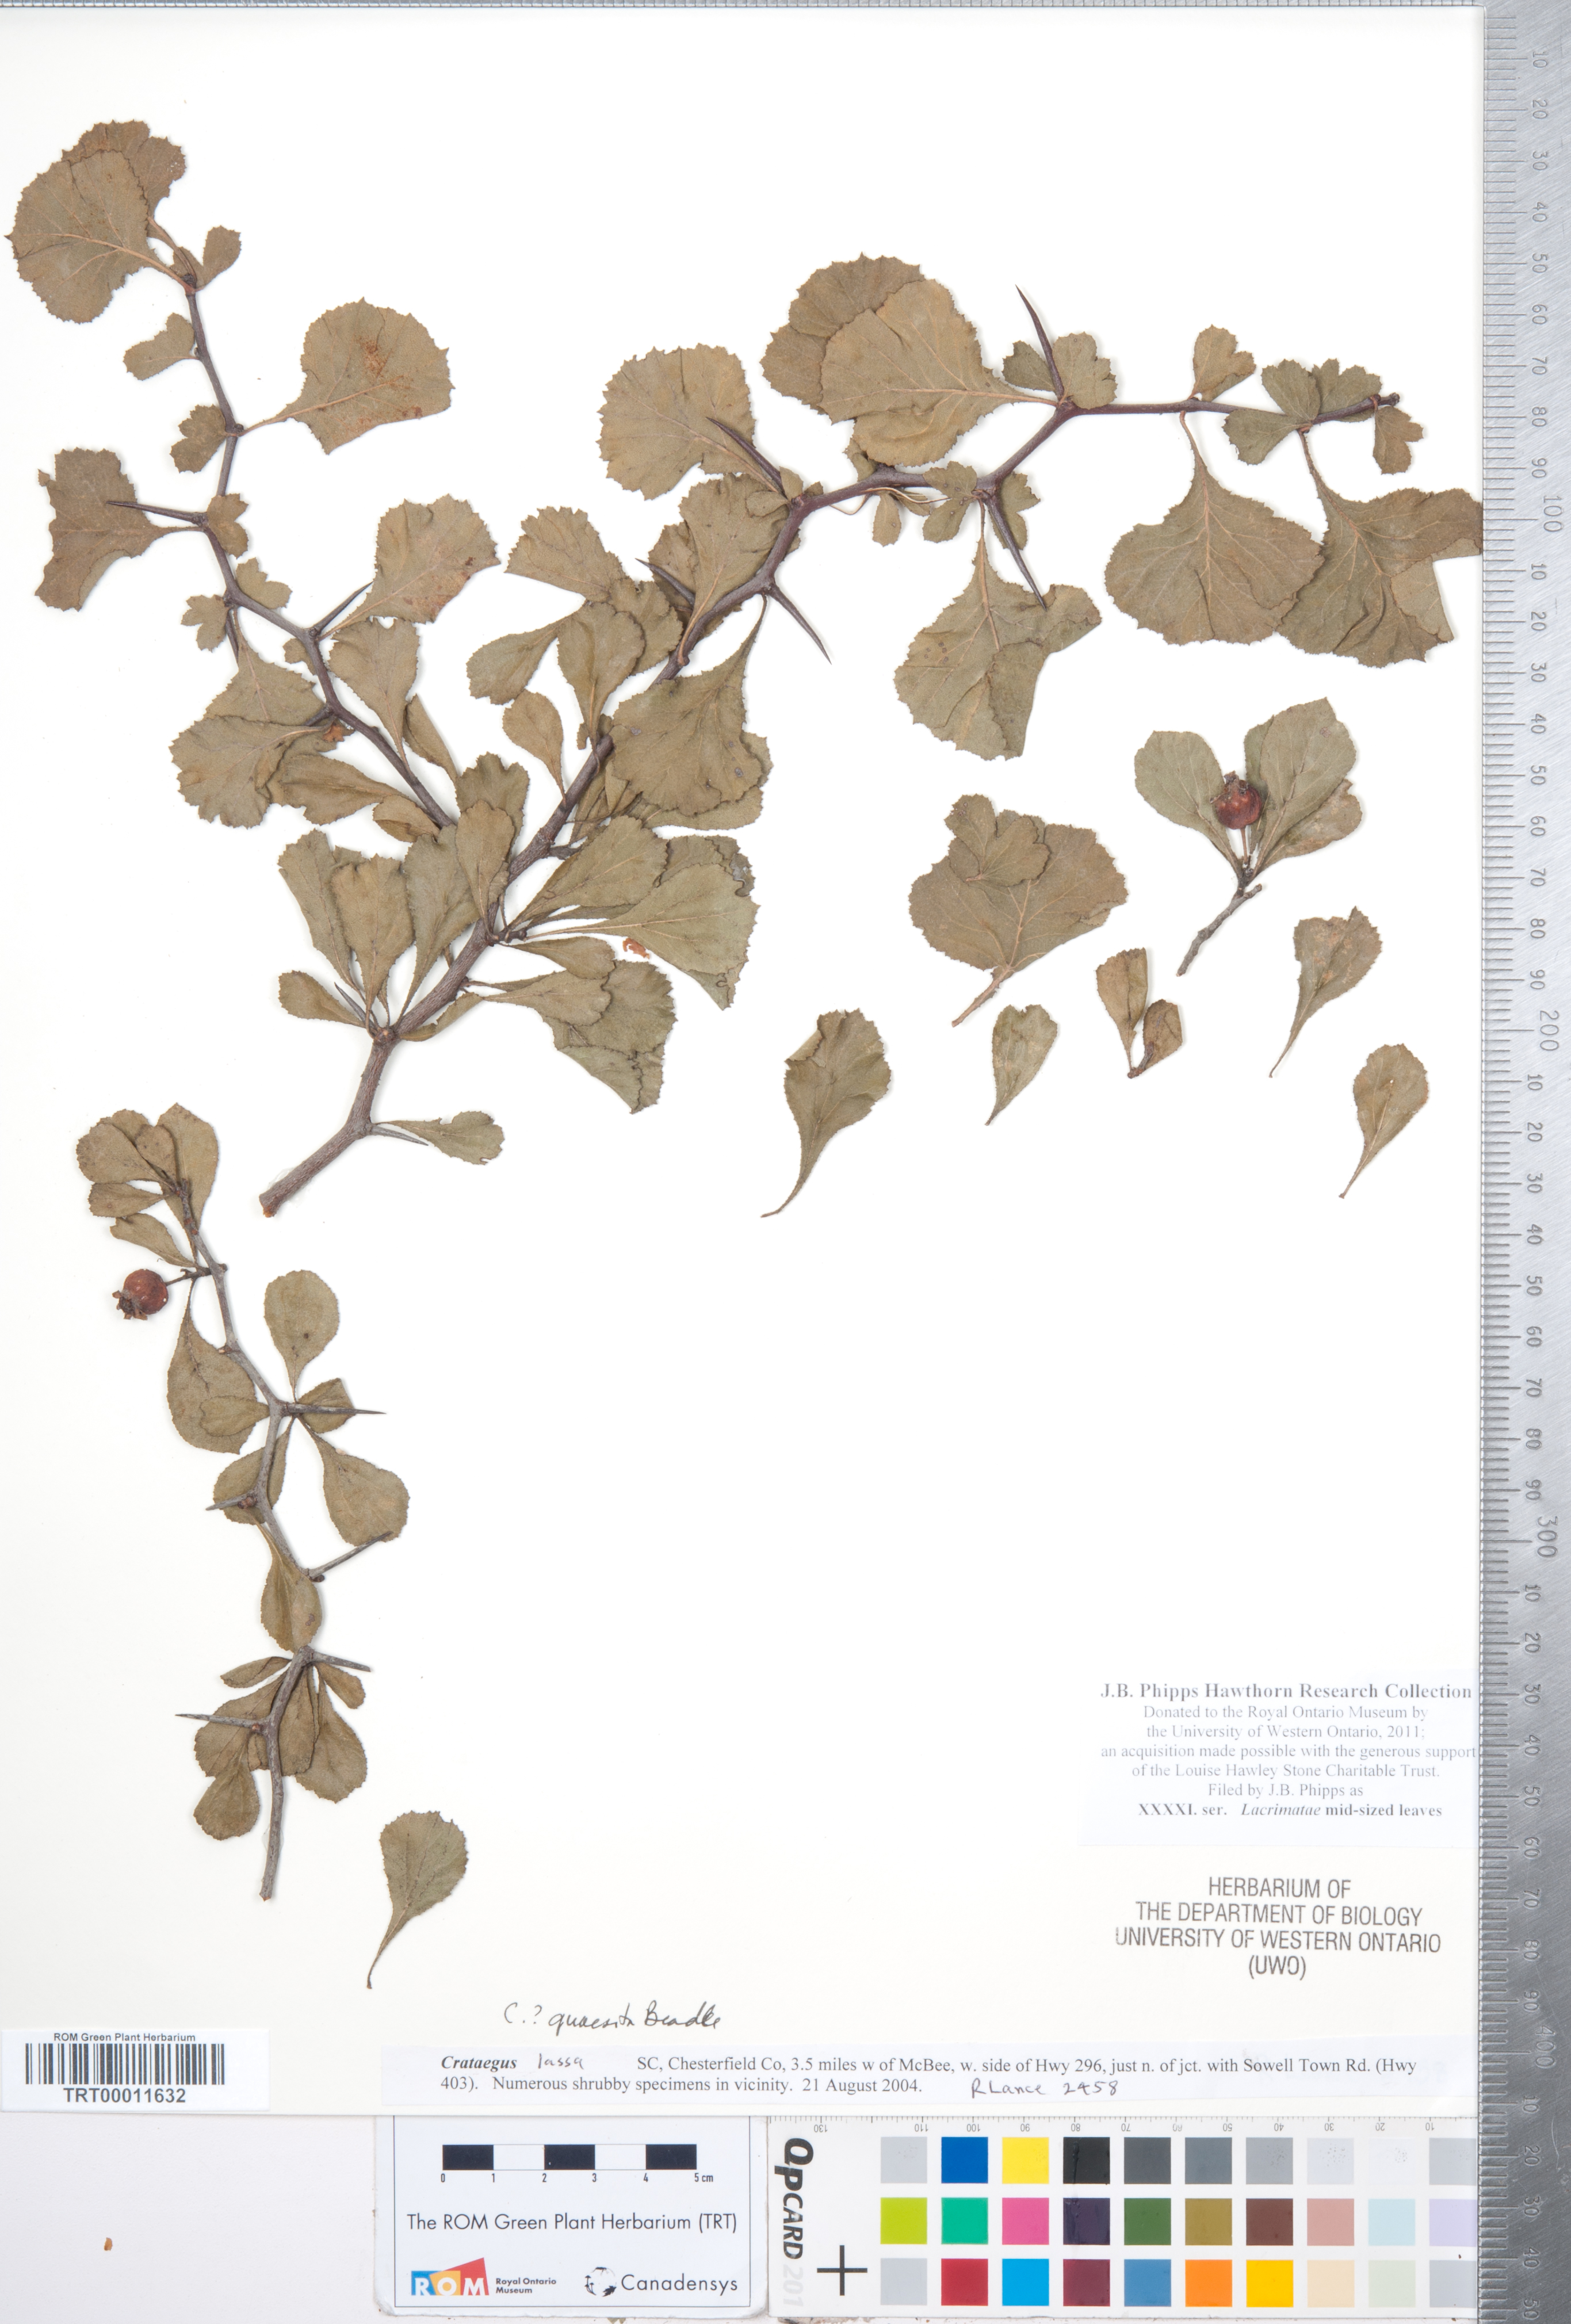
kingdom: Plantae
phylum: Tracheophyta
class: Magnoliopsida
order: Rosales
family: Rosaceae
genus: Crataegus
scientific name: Crataegus
